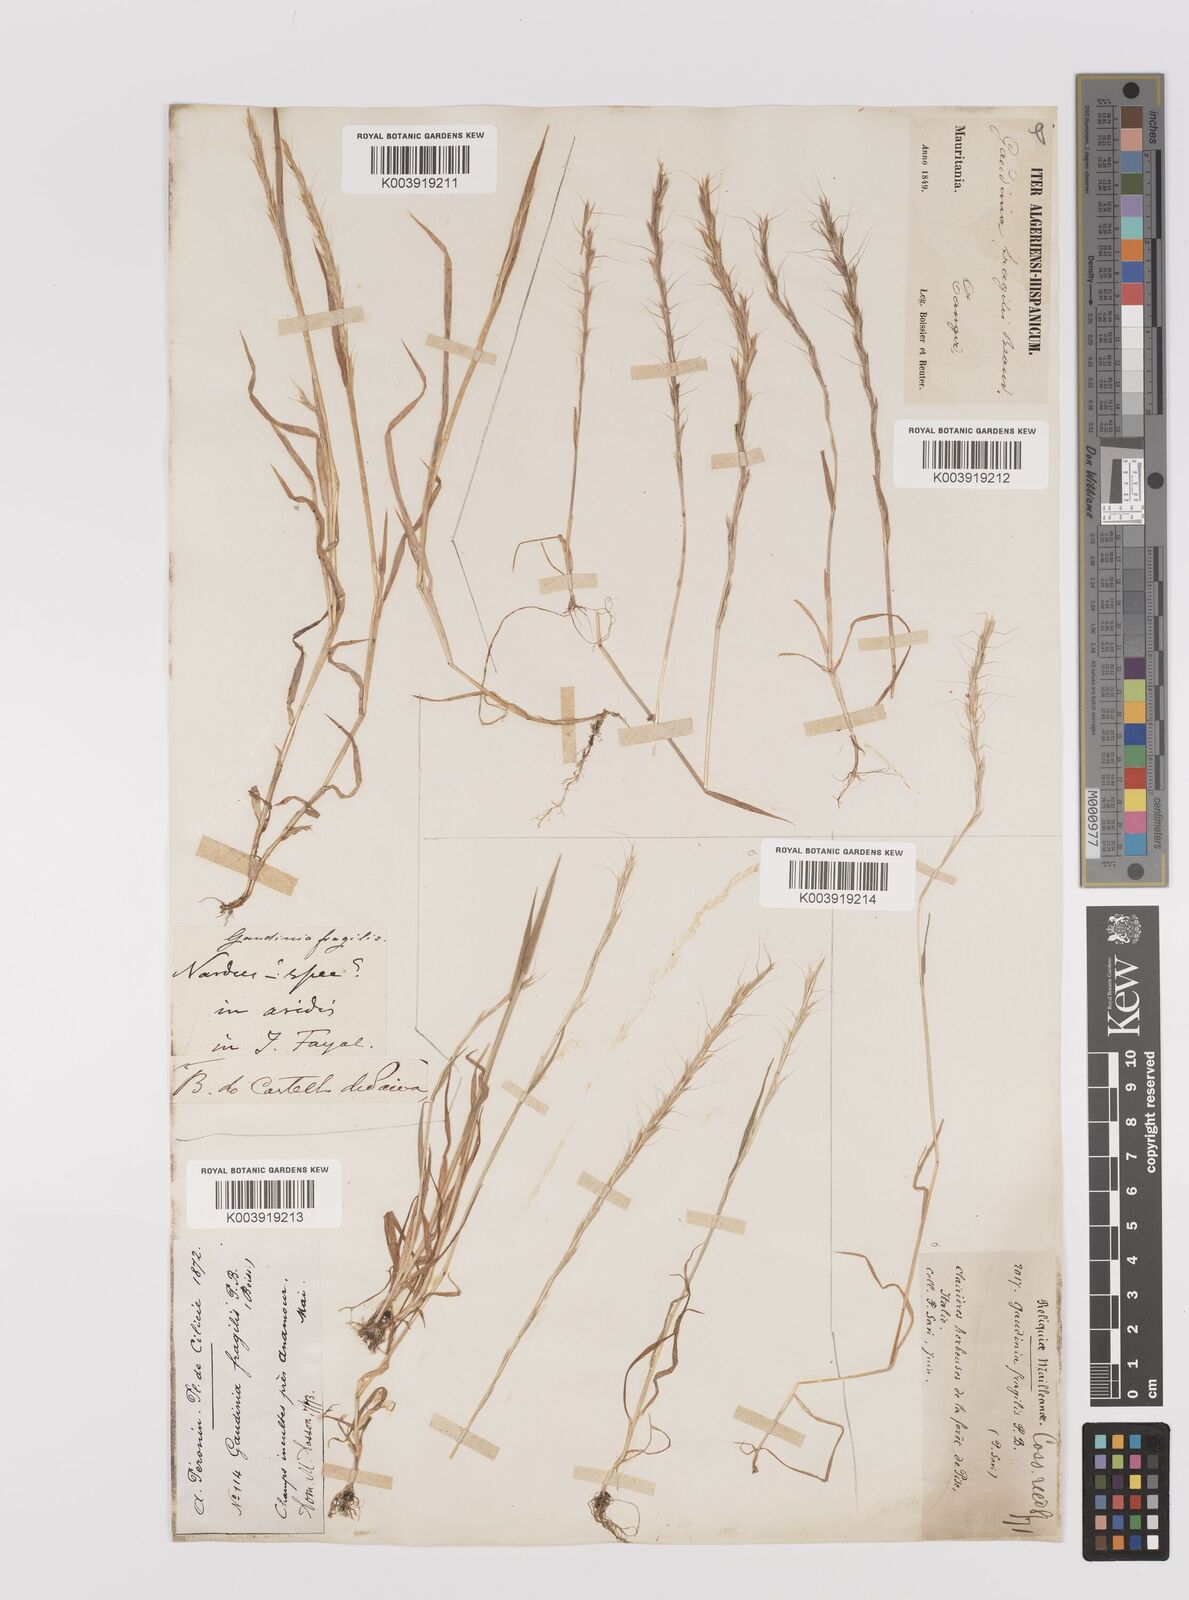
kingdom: Plantae
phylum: Tracheophyta
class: Liliopsida
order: Poales
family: Poaceae
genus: Gaudinia
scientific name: Gaudinia fragilis
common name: French oat-grass
